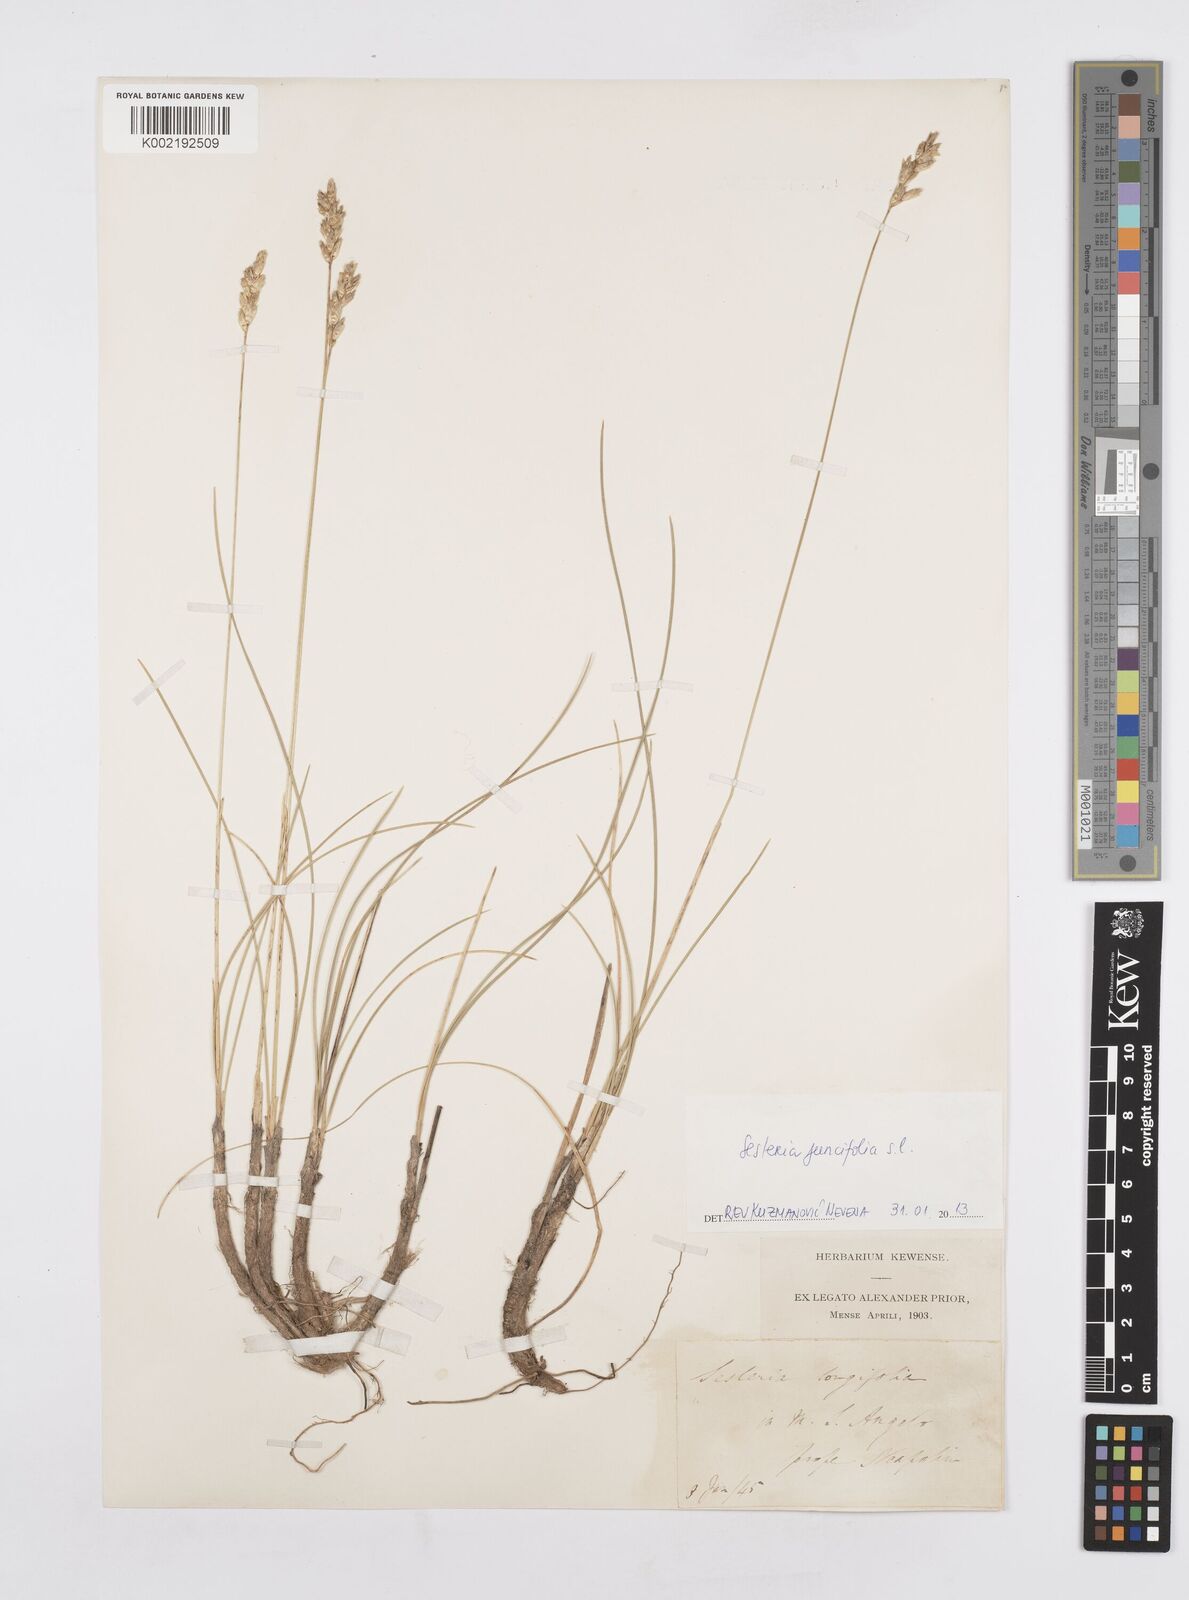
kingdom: Plantae
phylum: Tracheophyta
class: Liliopsida
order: Poales
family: Poaceae
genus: Sesleria
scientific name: Sesleria juncifolia
